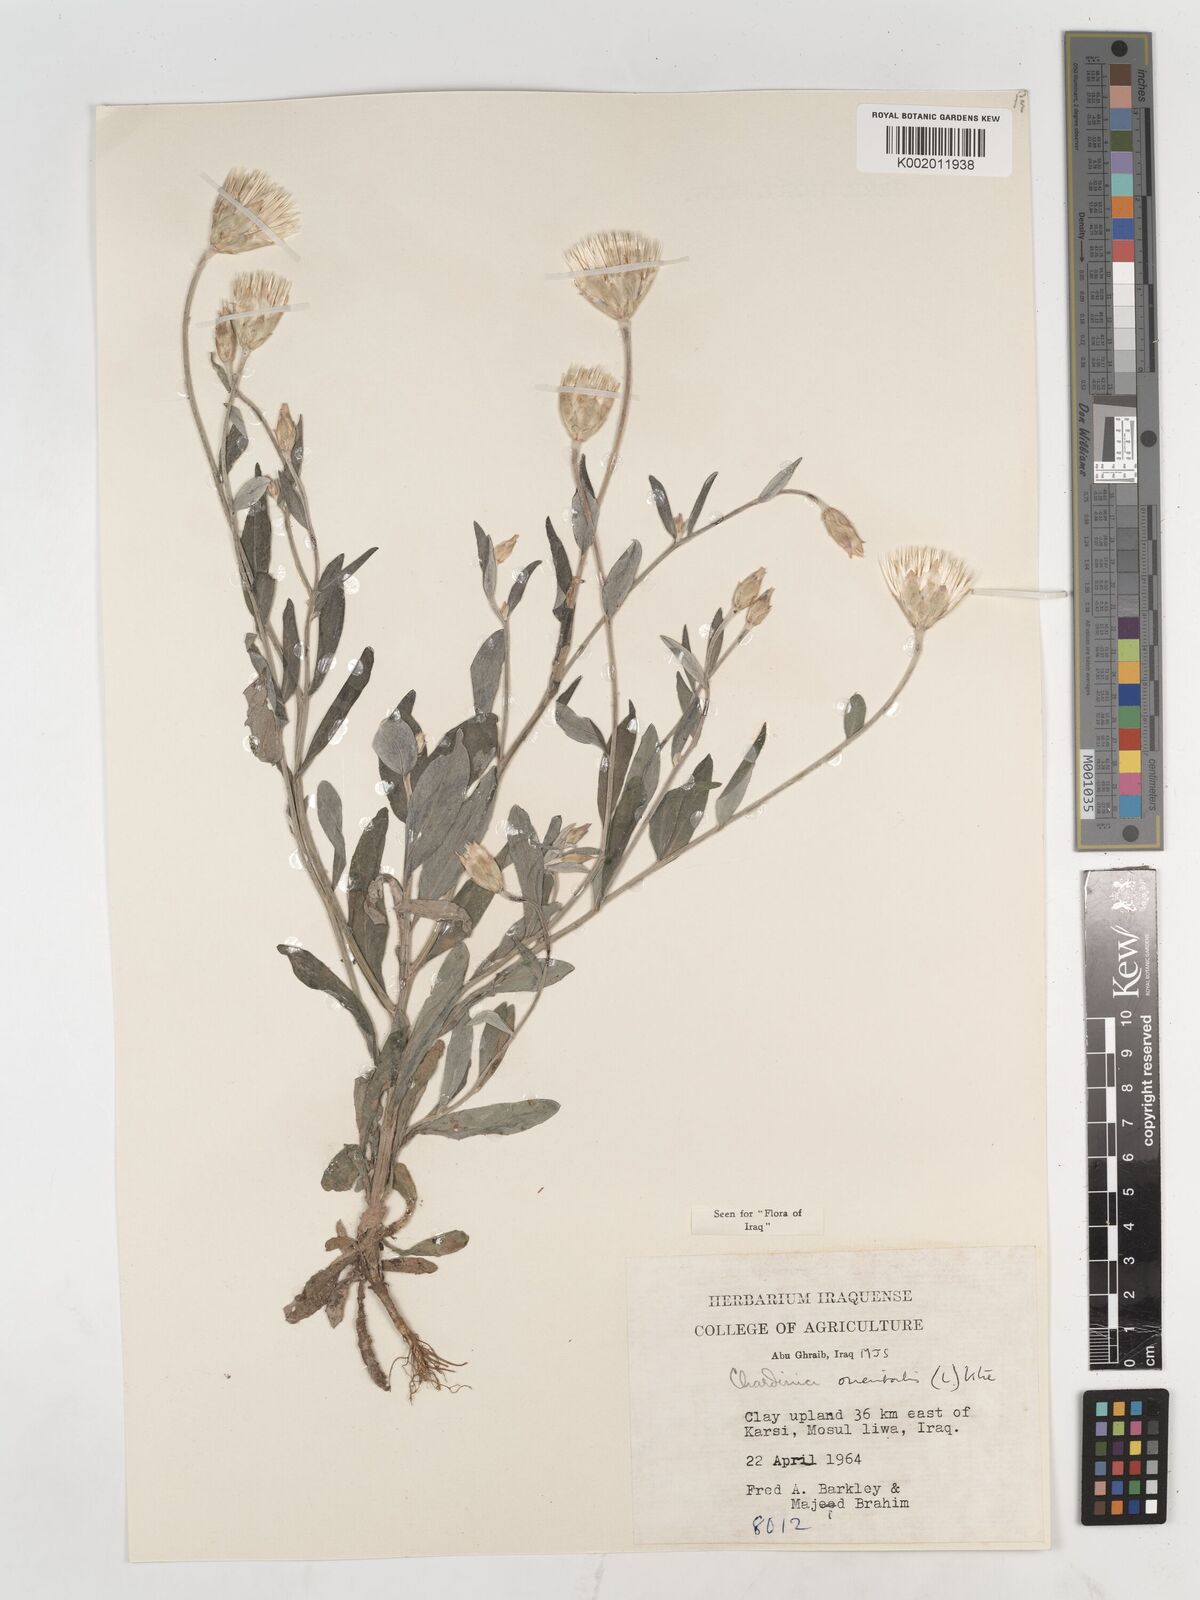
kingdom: Plantae
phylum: Tracheophyta
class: Magnoliopsida
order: Asterales
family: Asteraceae
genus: Chardinia
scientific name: Chardinia orientalis
